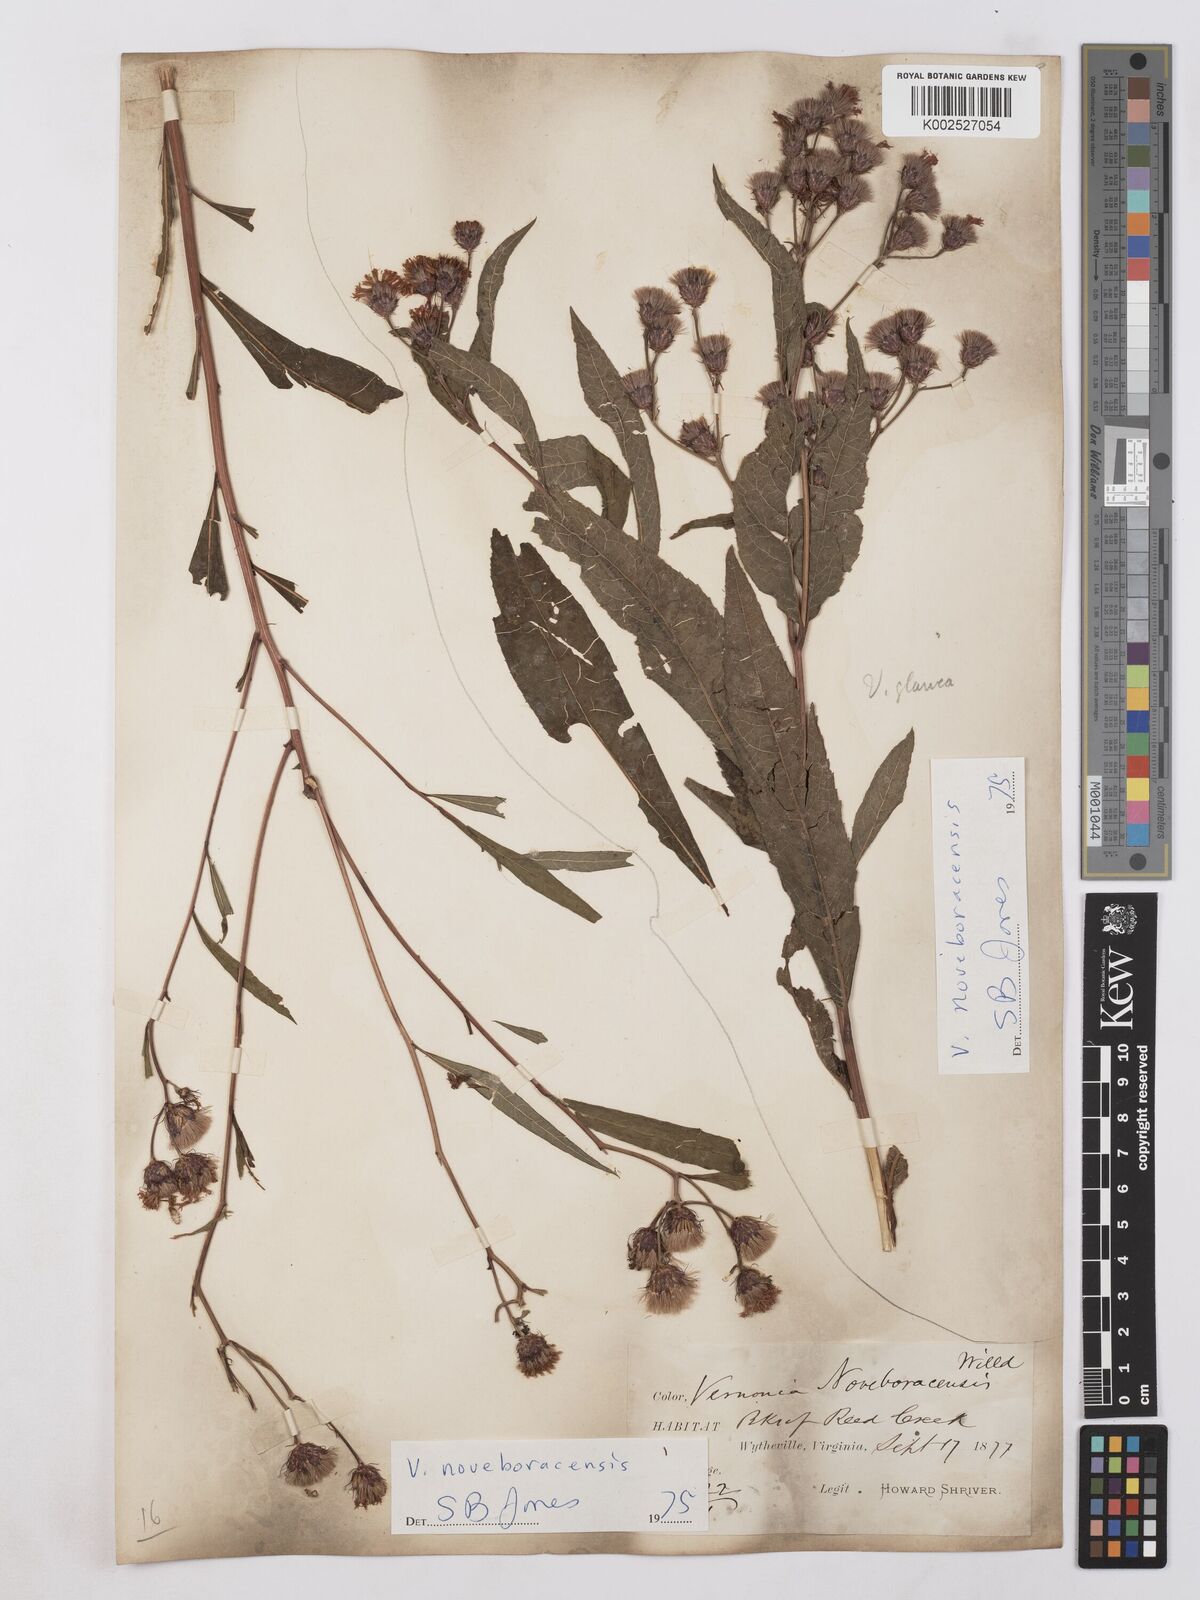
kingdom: Plantae
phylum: Tracheophyta
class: Magnoliopsida
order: Asterales
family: Asteraceae
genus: Vernonia
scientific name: Vernonia noveboracensis
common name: New york ironweed
